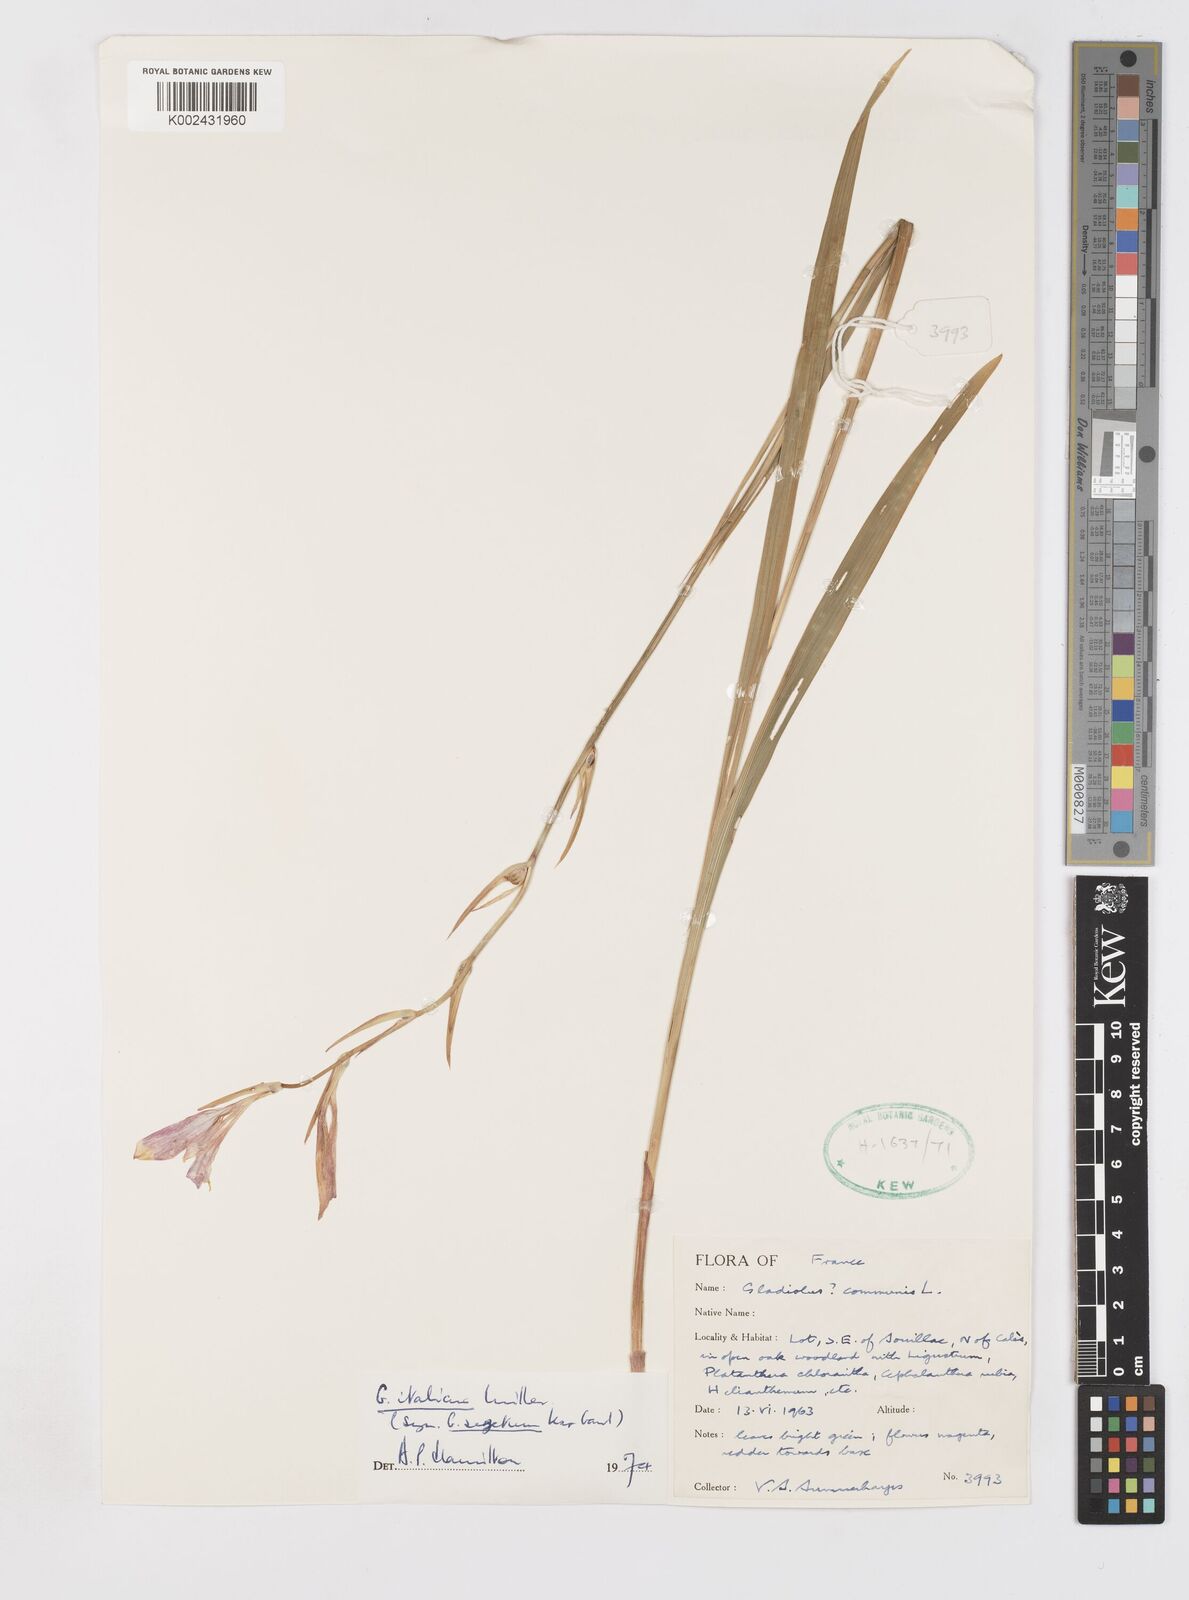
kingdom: Plantae
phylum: Tracheophyta
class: Liliopsida
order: Asparagales
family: Iridaceae
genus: Gladiolus
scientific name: Gladiolus
